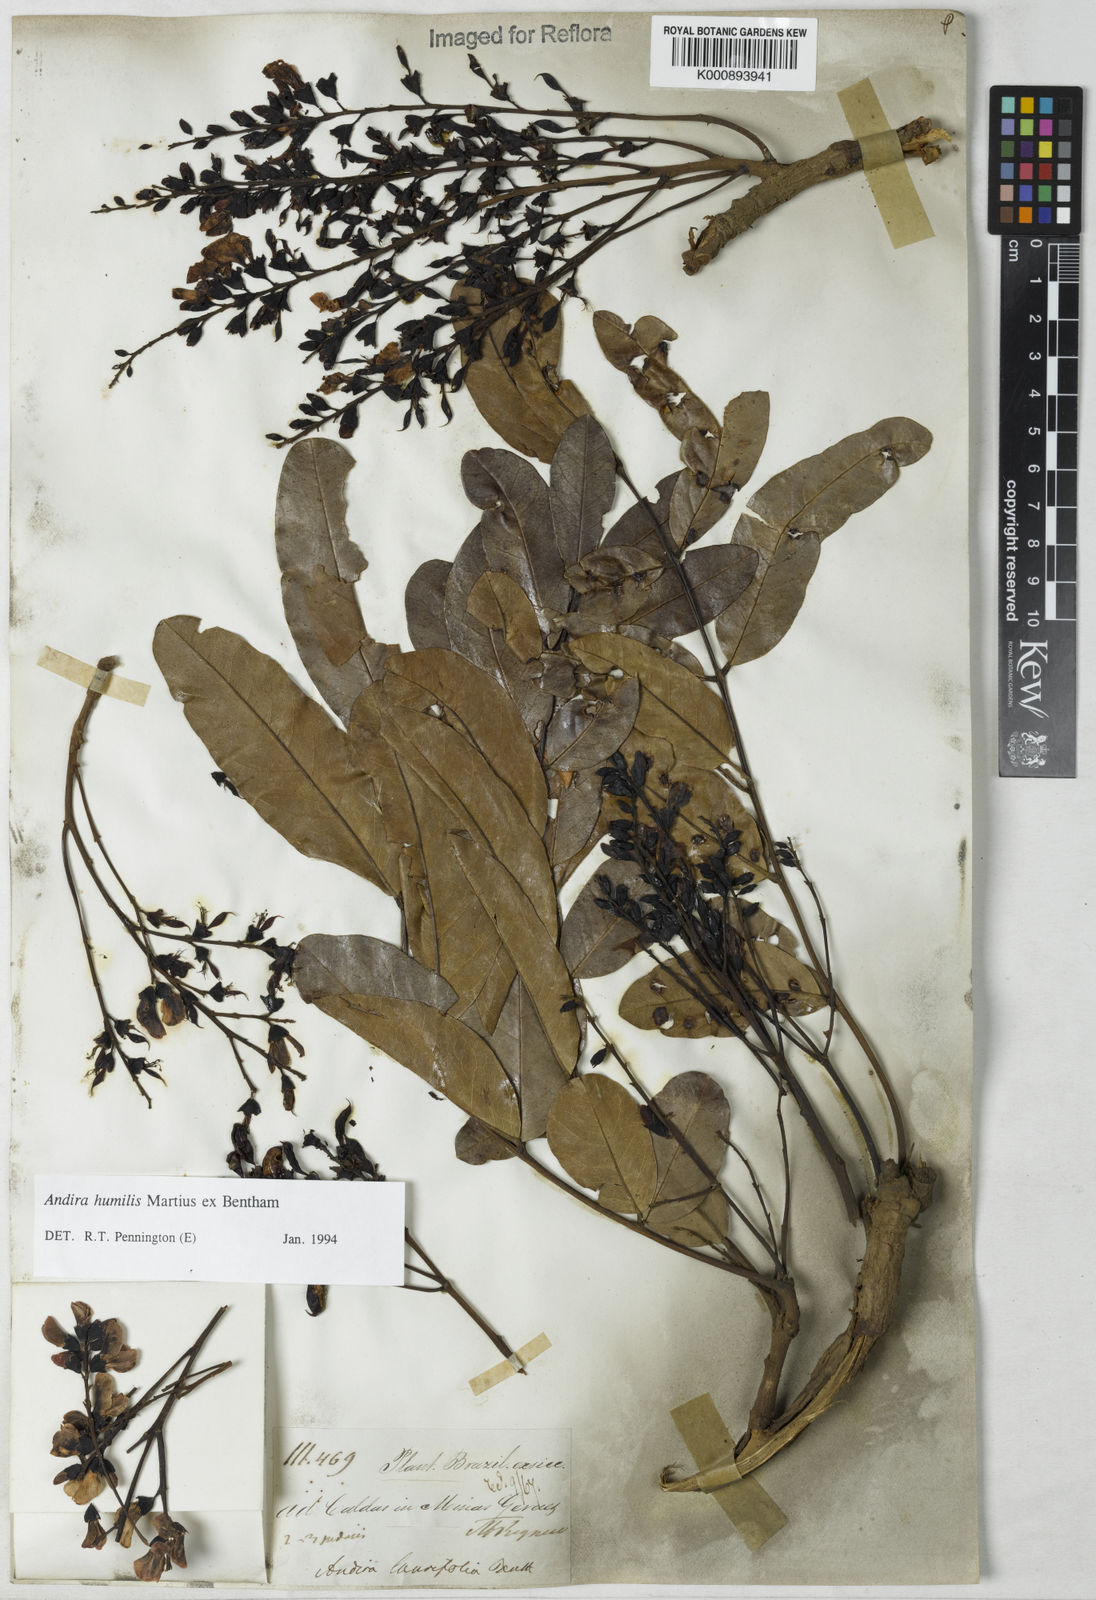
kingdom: Plantae
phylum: Tracheophyta
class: Magnoliopsida
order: Fabales
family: Fabaceae
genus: Andira
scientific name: Andira humilis
